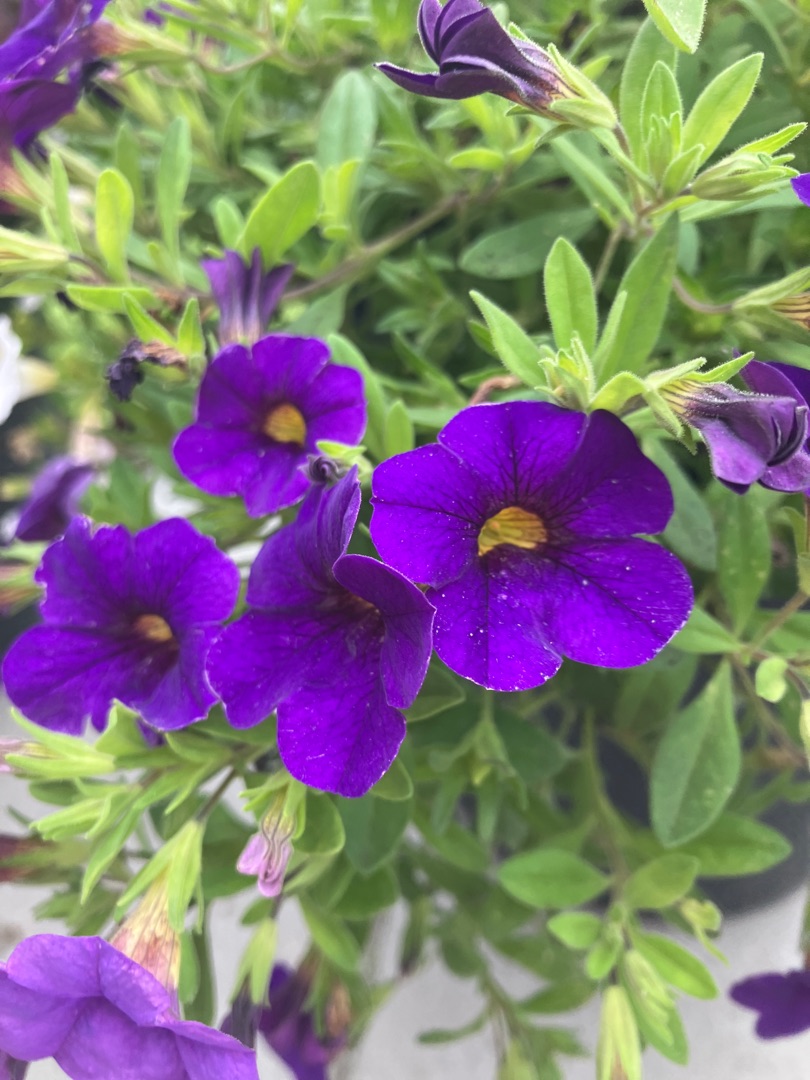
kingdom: Plantae
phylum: Tracheophyta
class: Magnoliopsida
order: Solanales
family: Solanaceae
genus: Petunia
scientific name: Petunia atkinsiana
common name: Have-petunie
